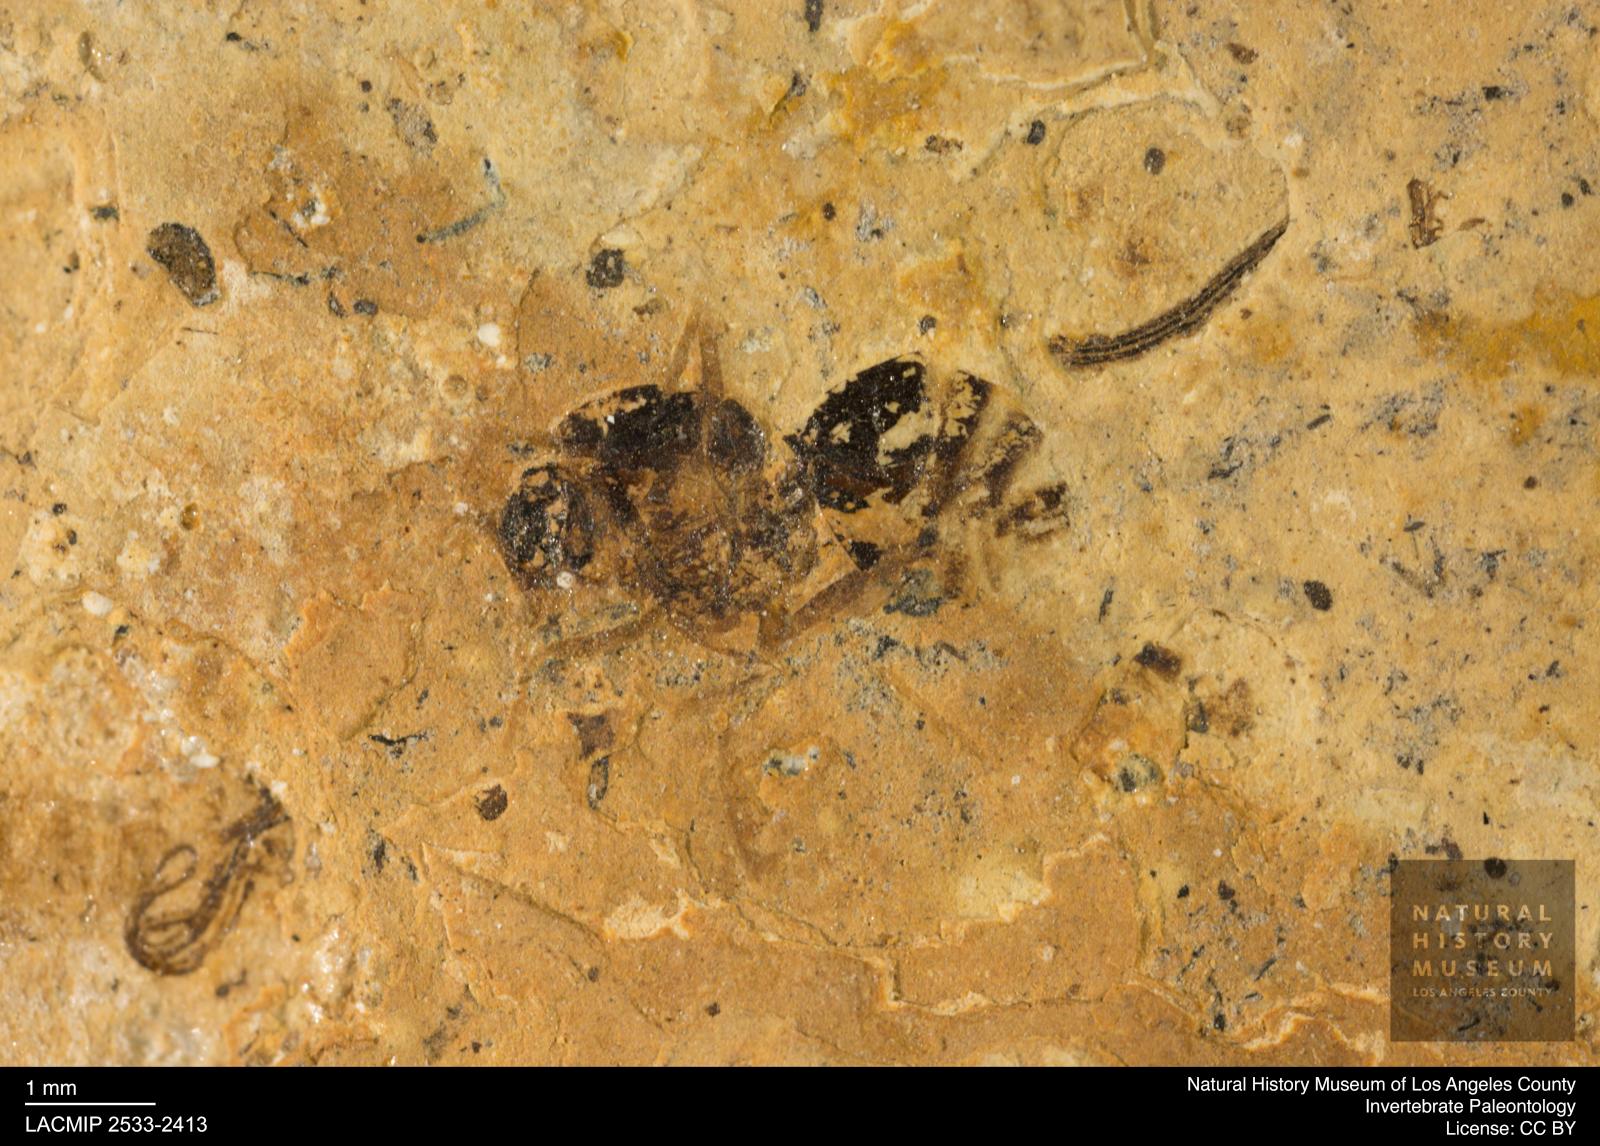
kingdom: Animalia
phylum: Arthropoda
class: Insecta
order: Hymenoptera
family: Formicidae
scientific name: Formicidae
